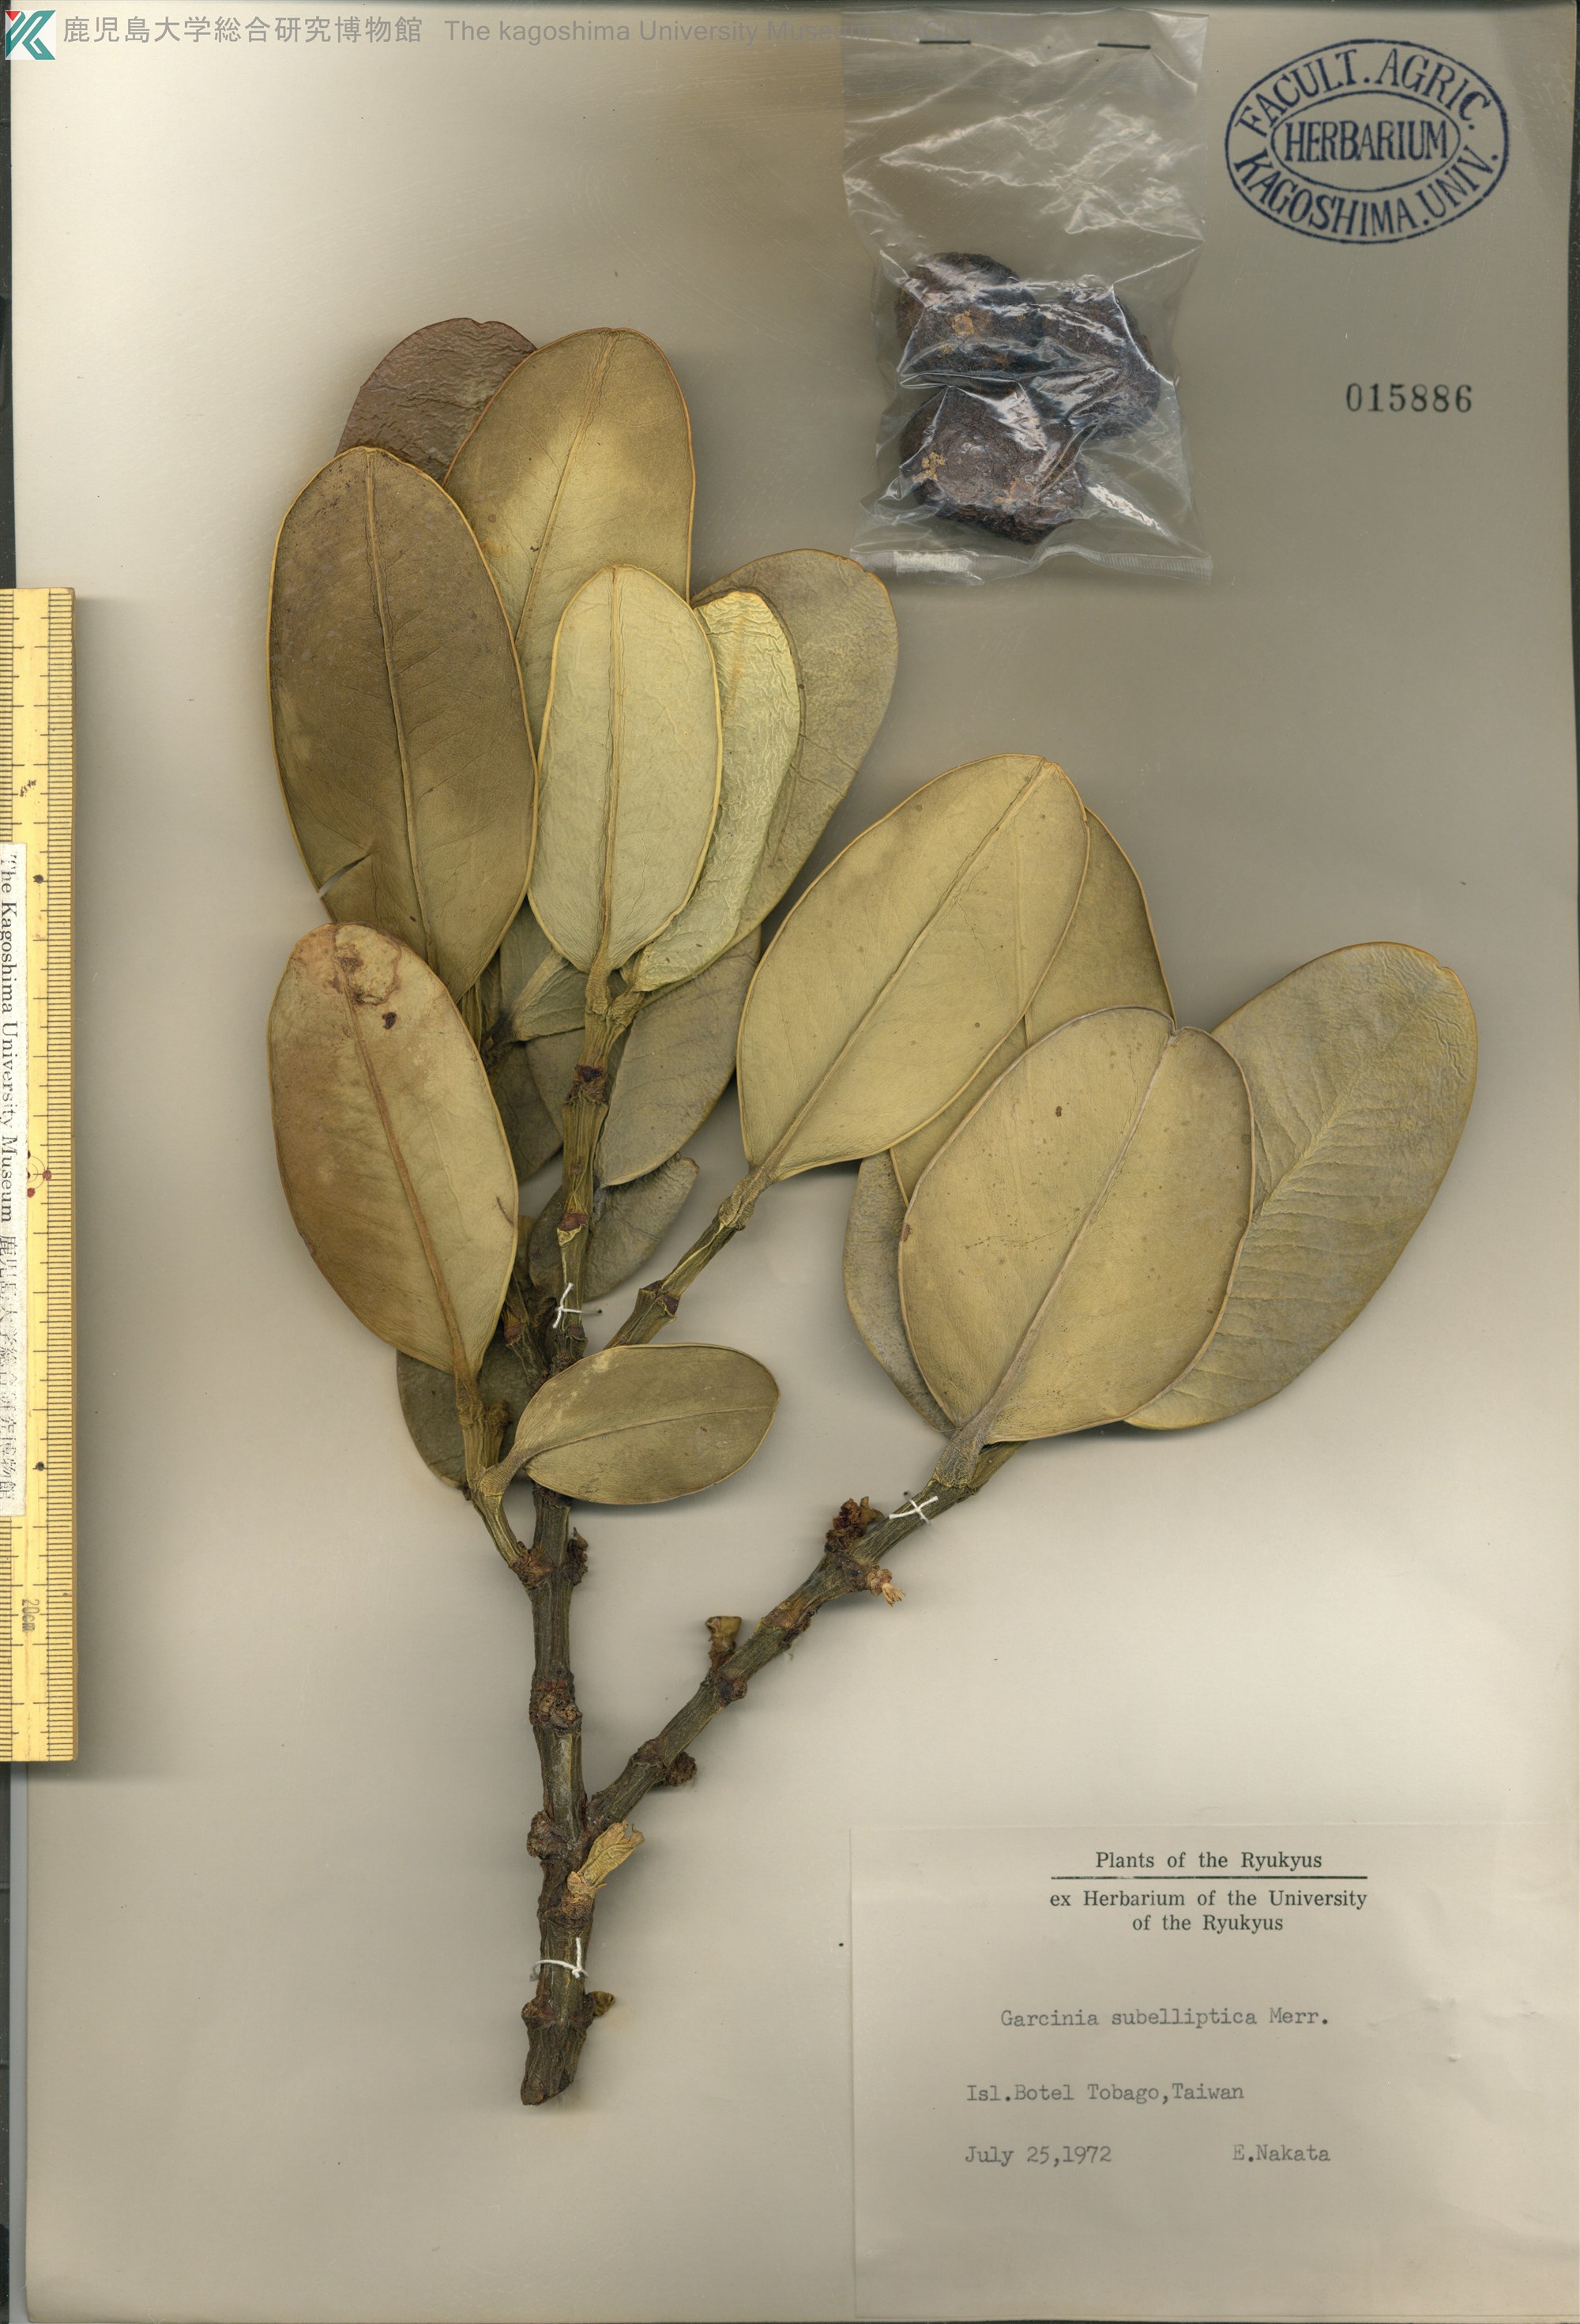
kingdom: Plantae
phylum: Tracheophyta
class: Magnoliopsida
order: Malpighiales
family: Clusiaceae
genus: Garcinia
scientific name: Garcinia subelliptica
